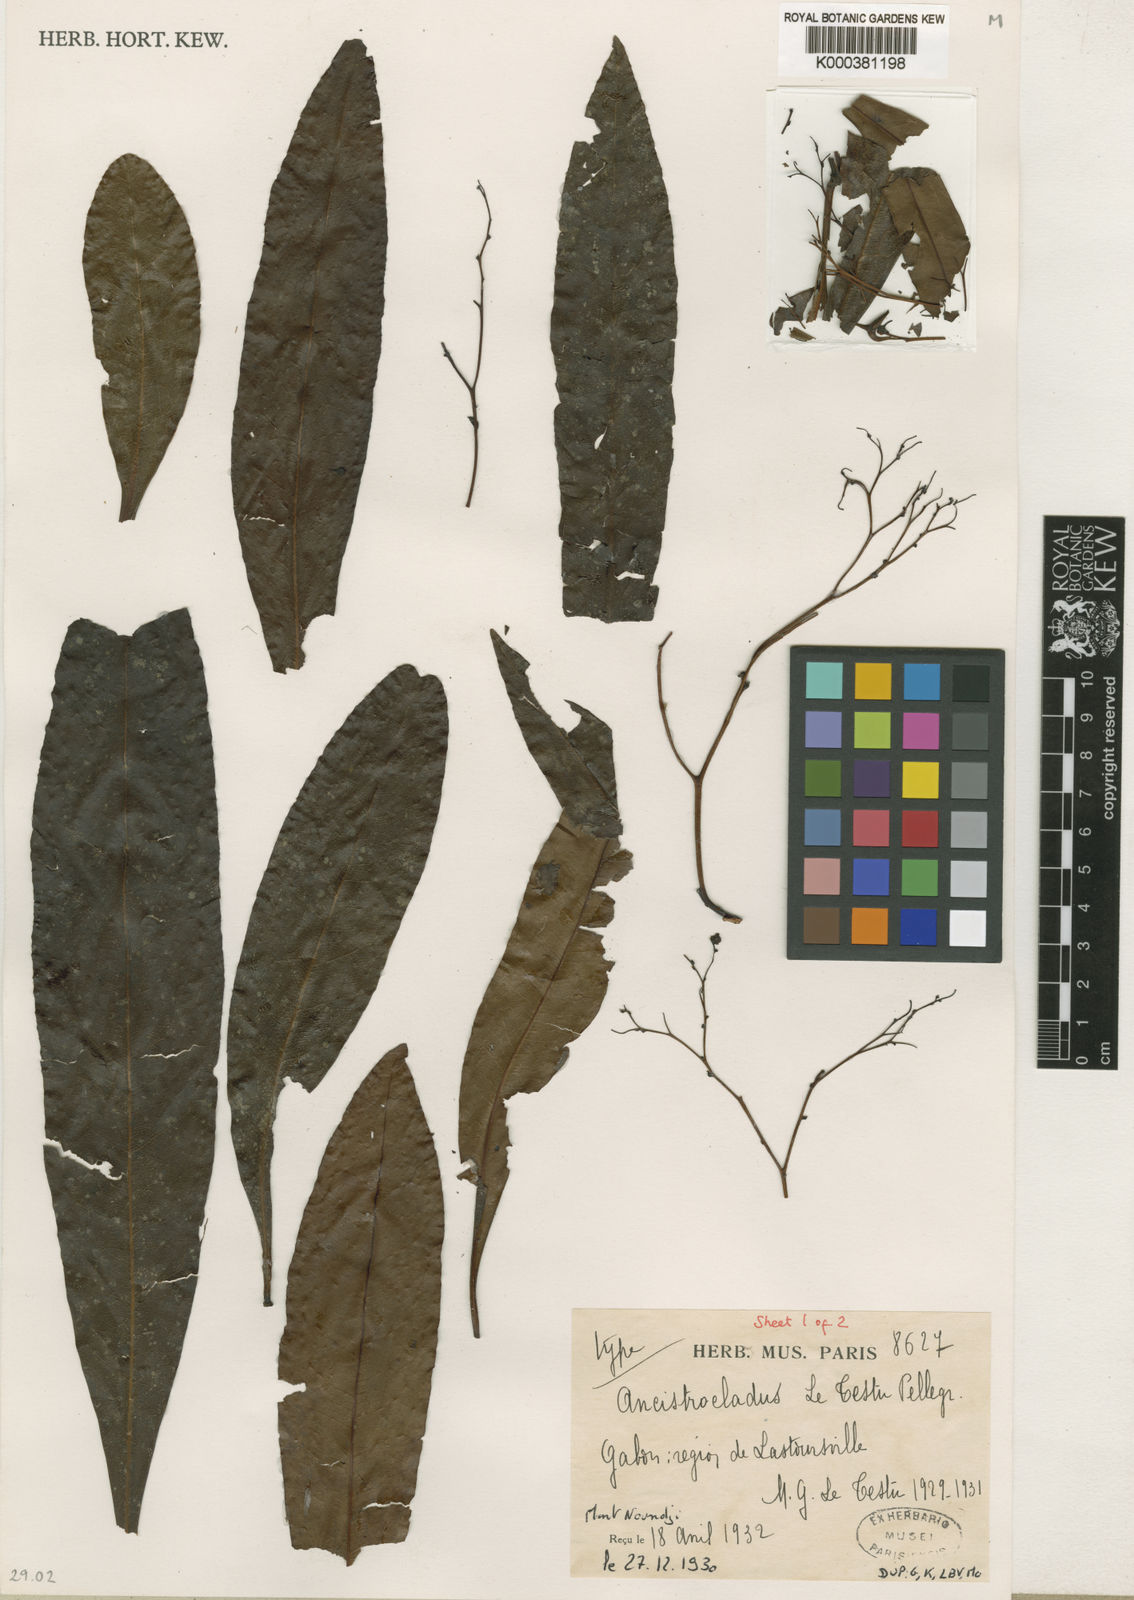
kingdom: Plantae
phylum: Tracheophyta
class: Magnoliopsida
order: Caryophyllales
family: Ancistrocladaceae
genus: Ancistrocladus
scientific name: Ancistrocladus letestui
